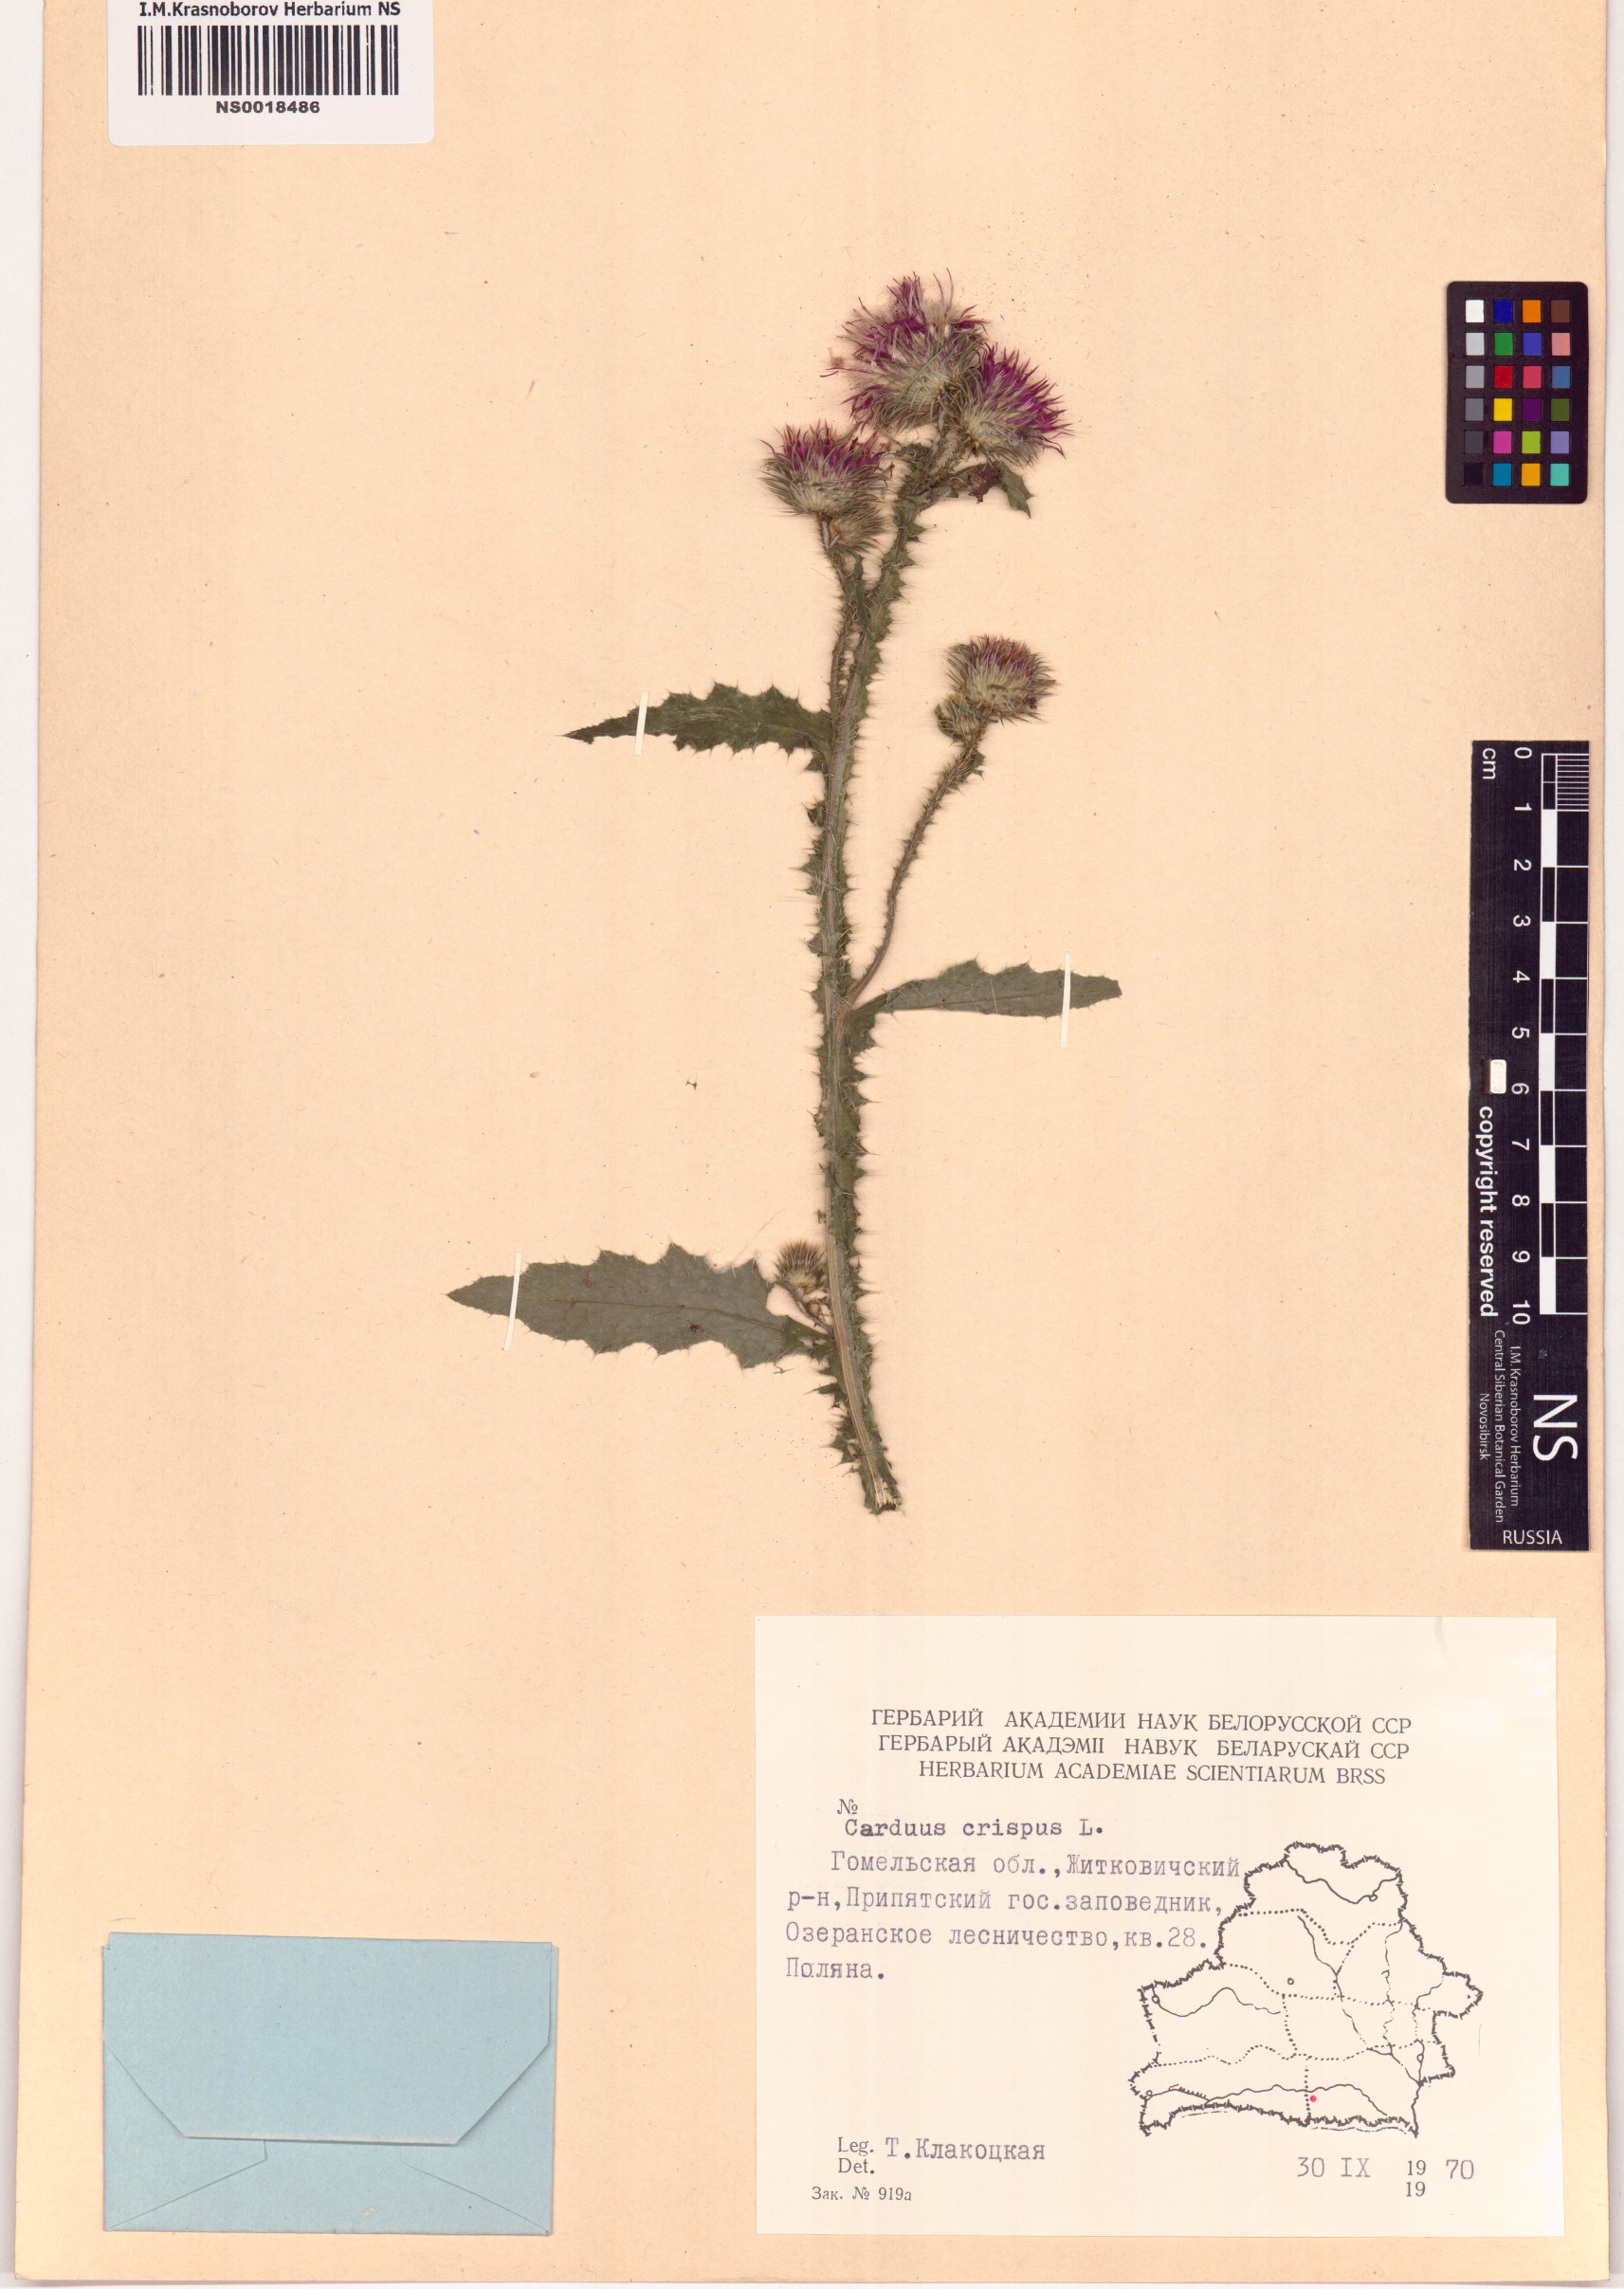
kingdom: Plantae
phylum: Tracheophyta
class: Magnoliopsida
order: Asterales
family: Asteraceae
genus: Carduus
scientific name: Carduus crispus
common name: Welted thistle
